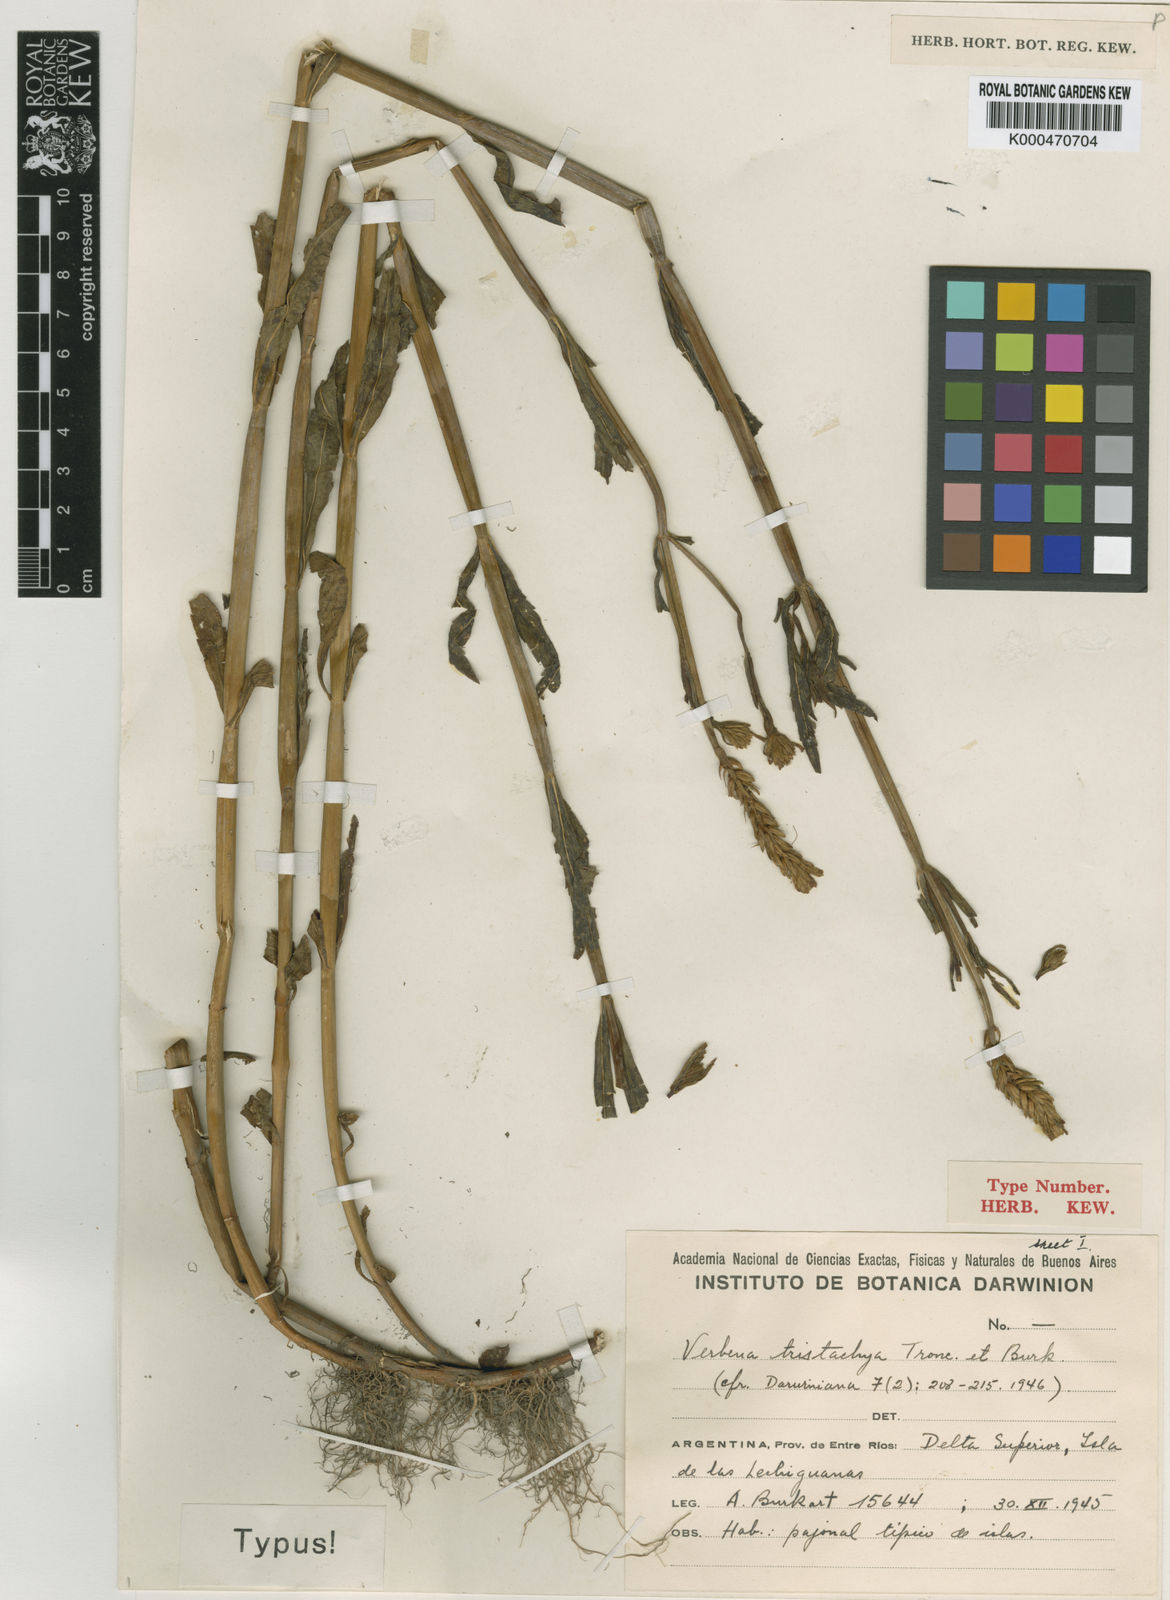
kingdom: Plantae
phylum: Tracheophyta
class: Magnoliopsida
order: Lamiales
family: Verbenaceae
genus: Verbena
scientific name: Verbena sessilis
